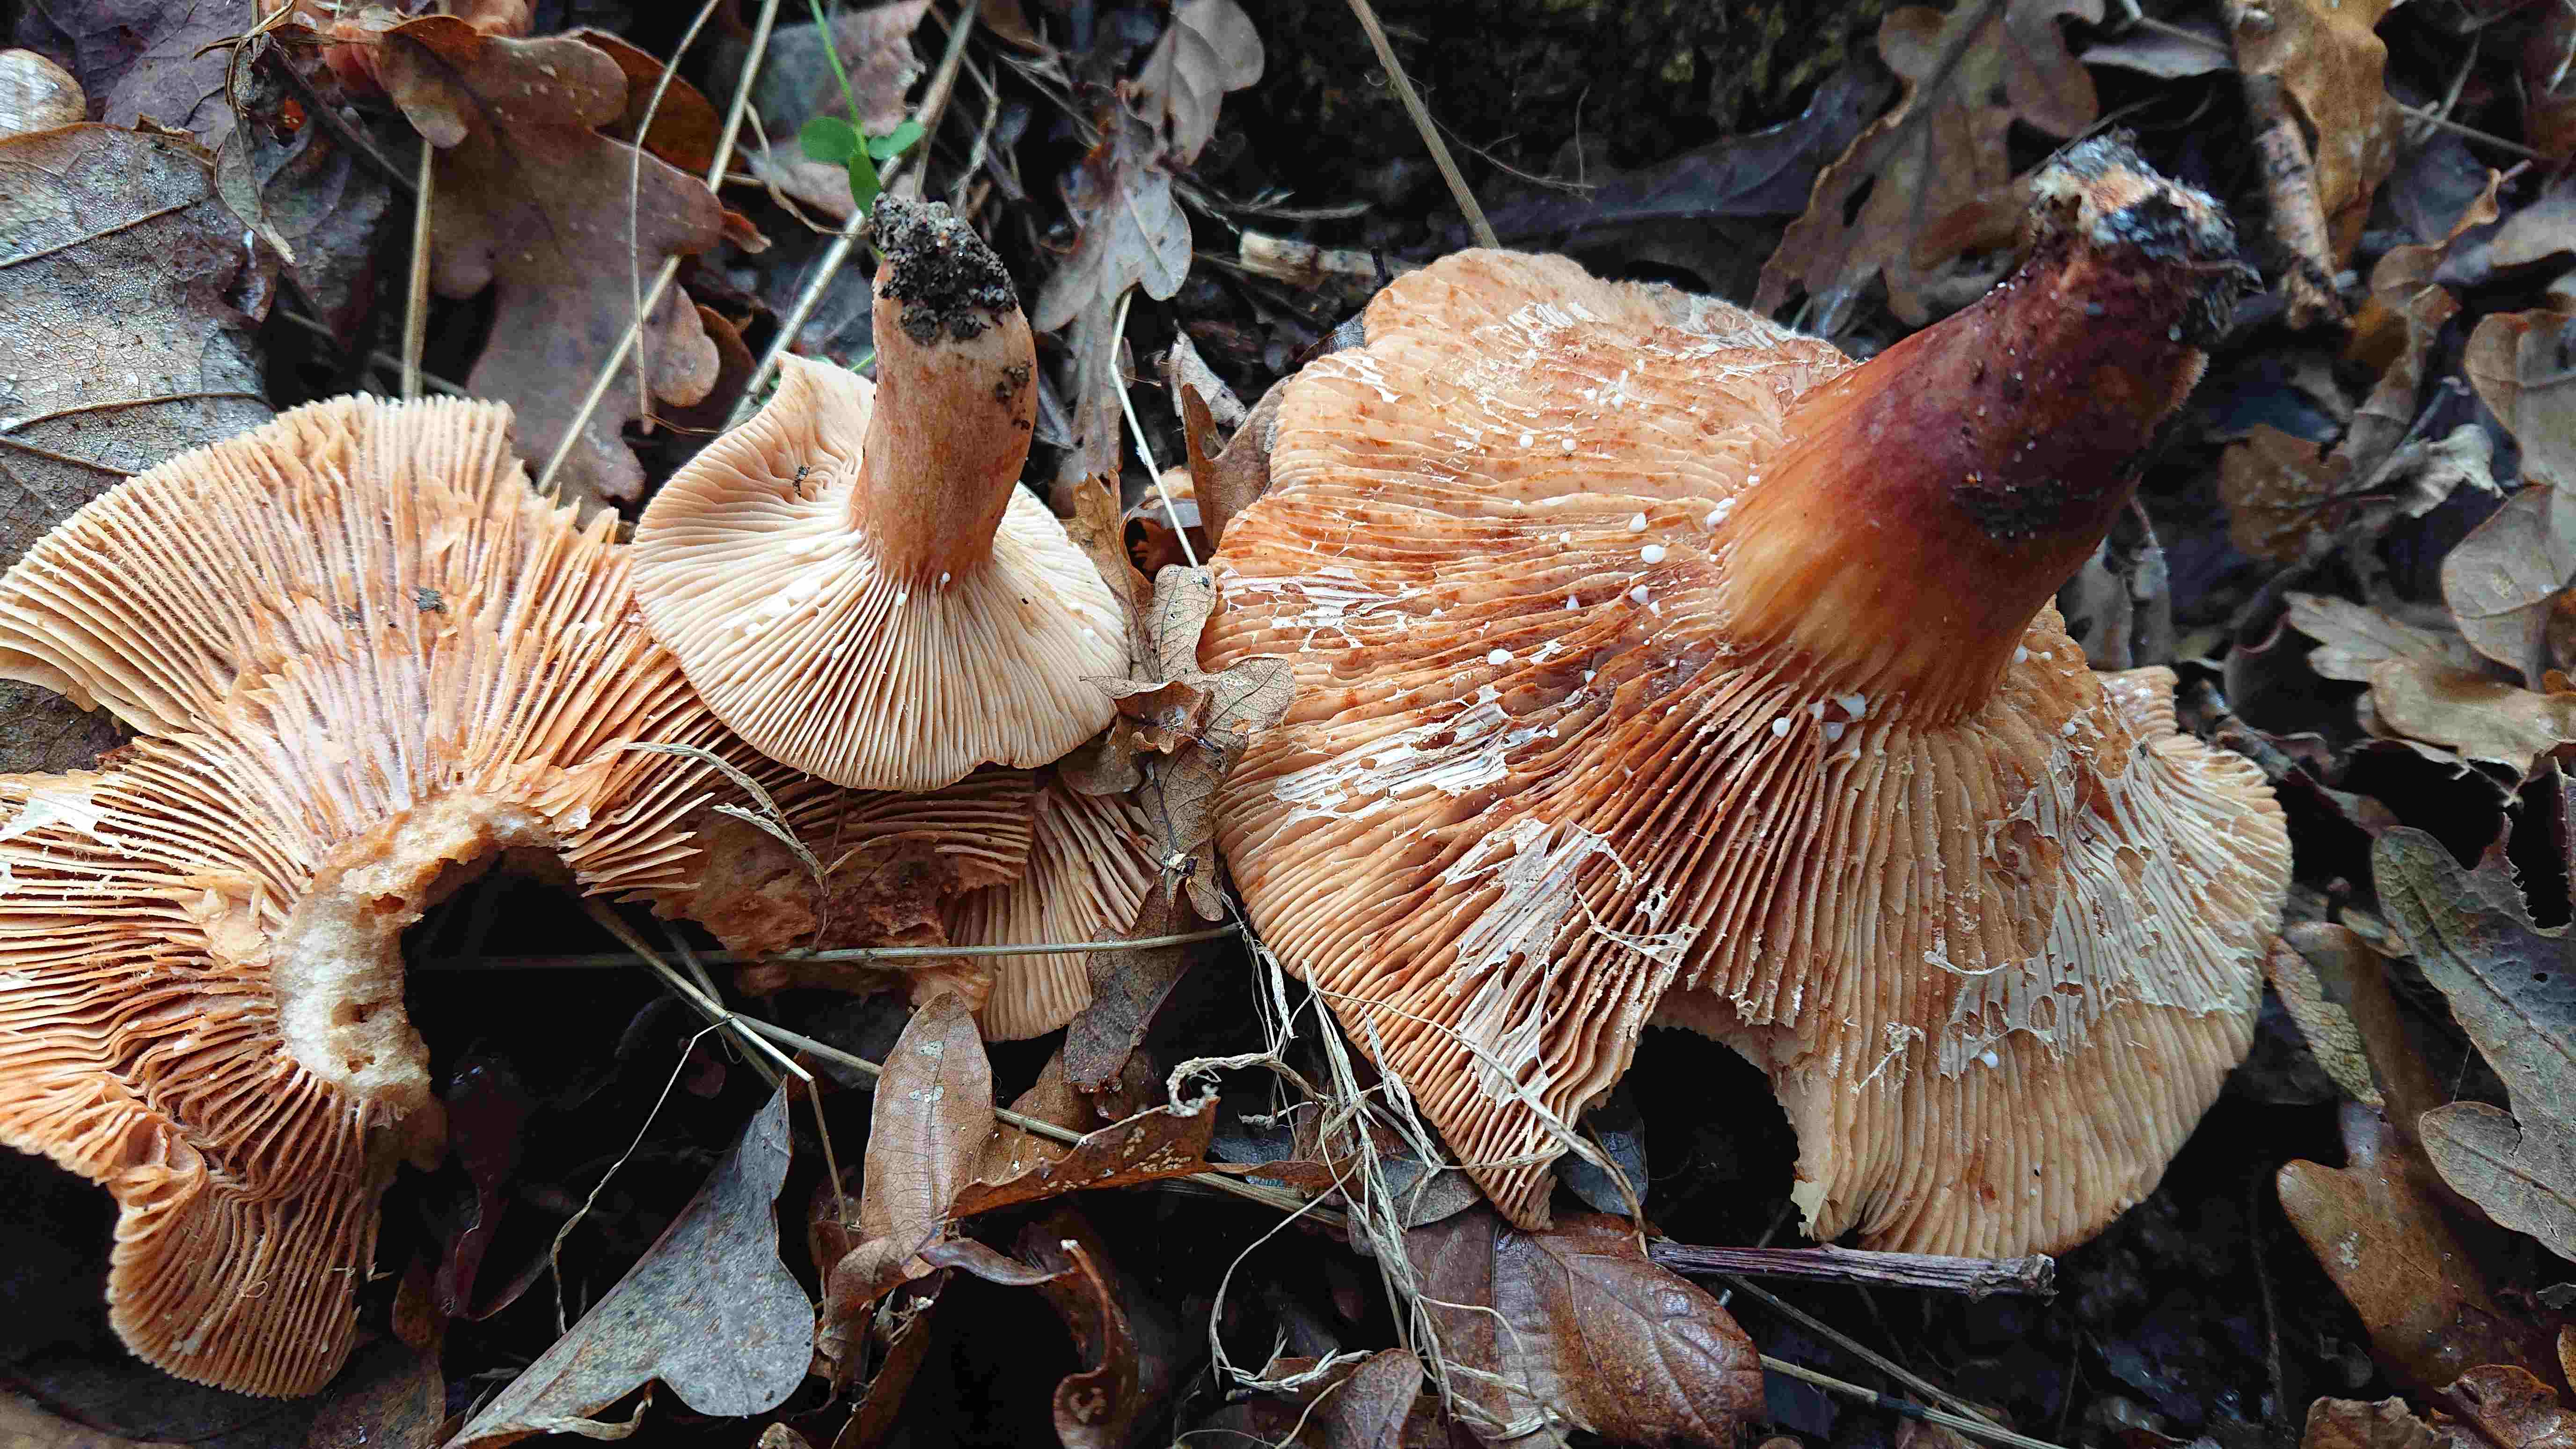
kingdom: Fungi
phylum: Basidiomycota
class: Agaricomycetes
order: Russulales
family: Russulaceae
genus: Lactarius
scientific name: Lactarius fulvissimus
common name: ræve-mælkehat
